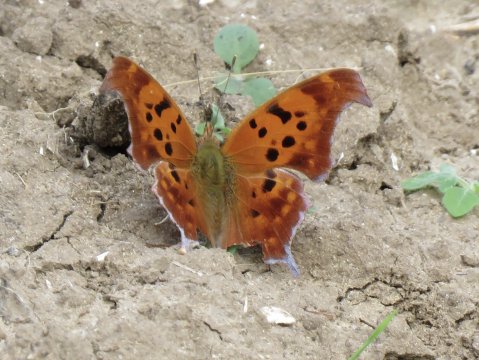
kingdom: Animalia
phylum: Arthropoda
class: Insecta
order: Lepidoptera
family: Nymphalidae
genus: Polygonia
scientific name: Polygonia interrogationis
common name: Question Mark
